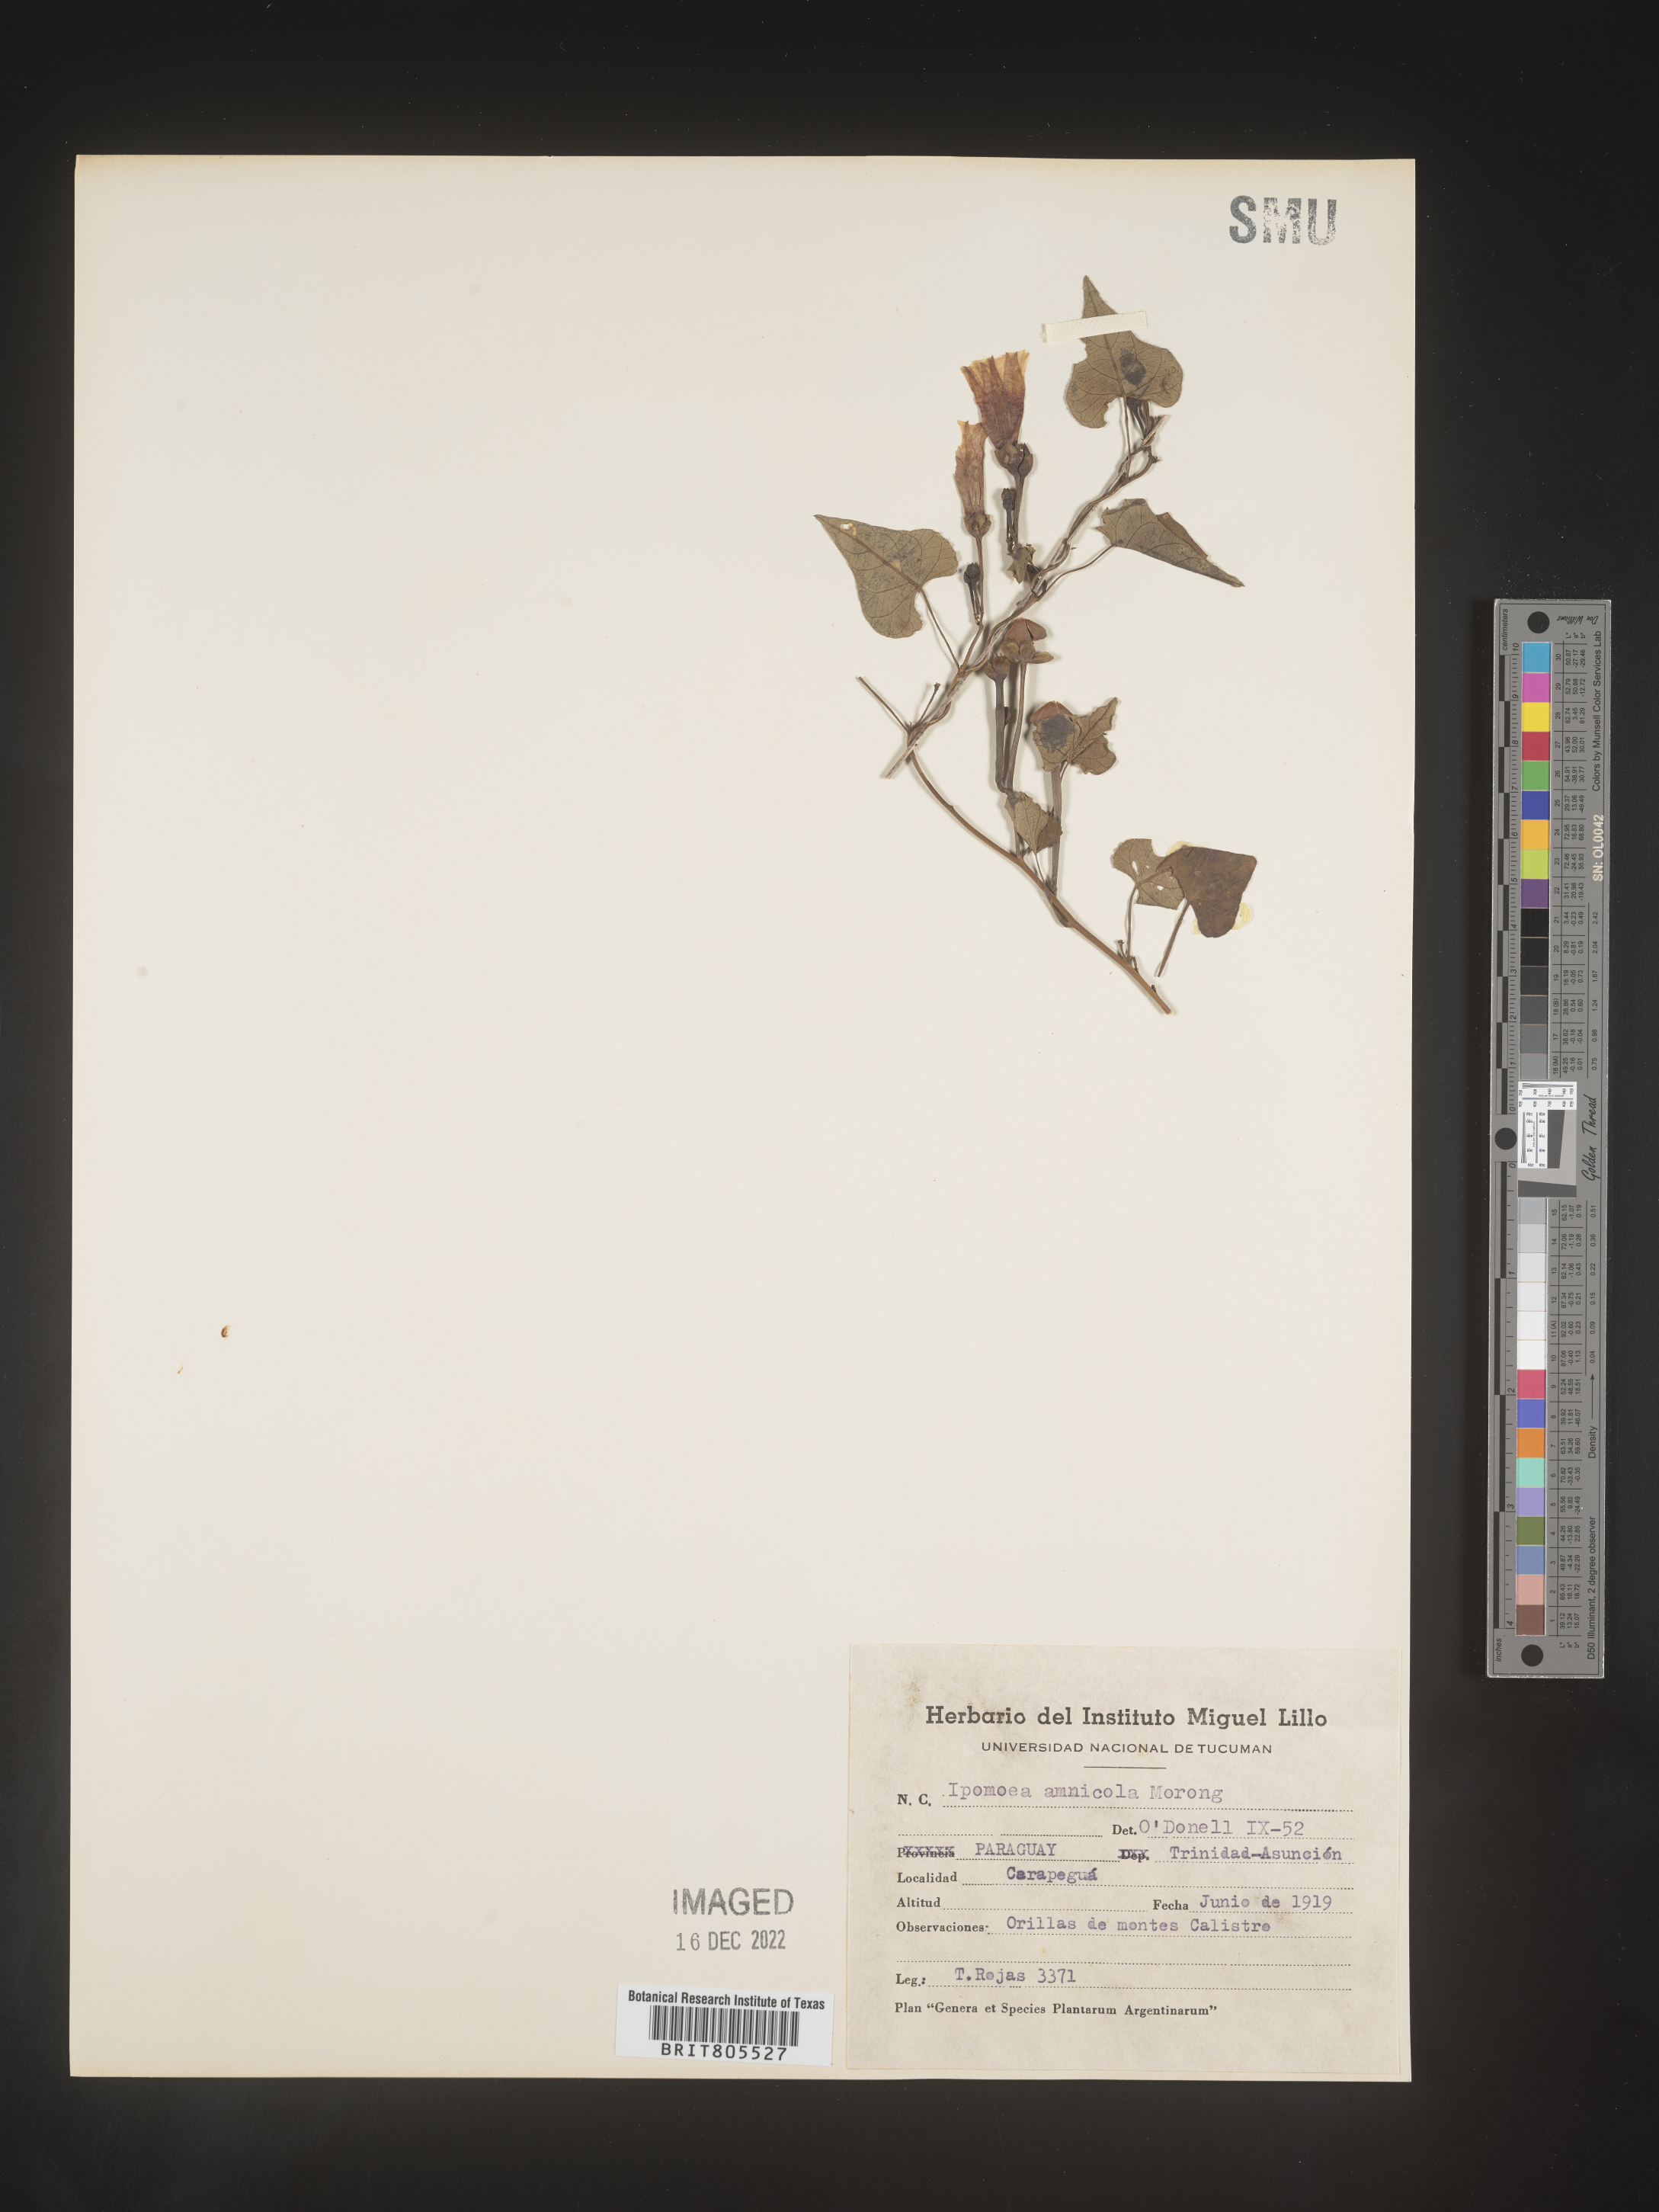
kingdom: Plantae
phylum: Tracheophyta
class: Magnoliopsida
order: Solanales
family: Convolvulaceae
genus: Ipomoea
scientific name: Ipomoea
